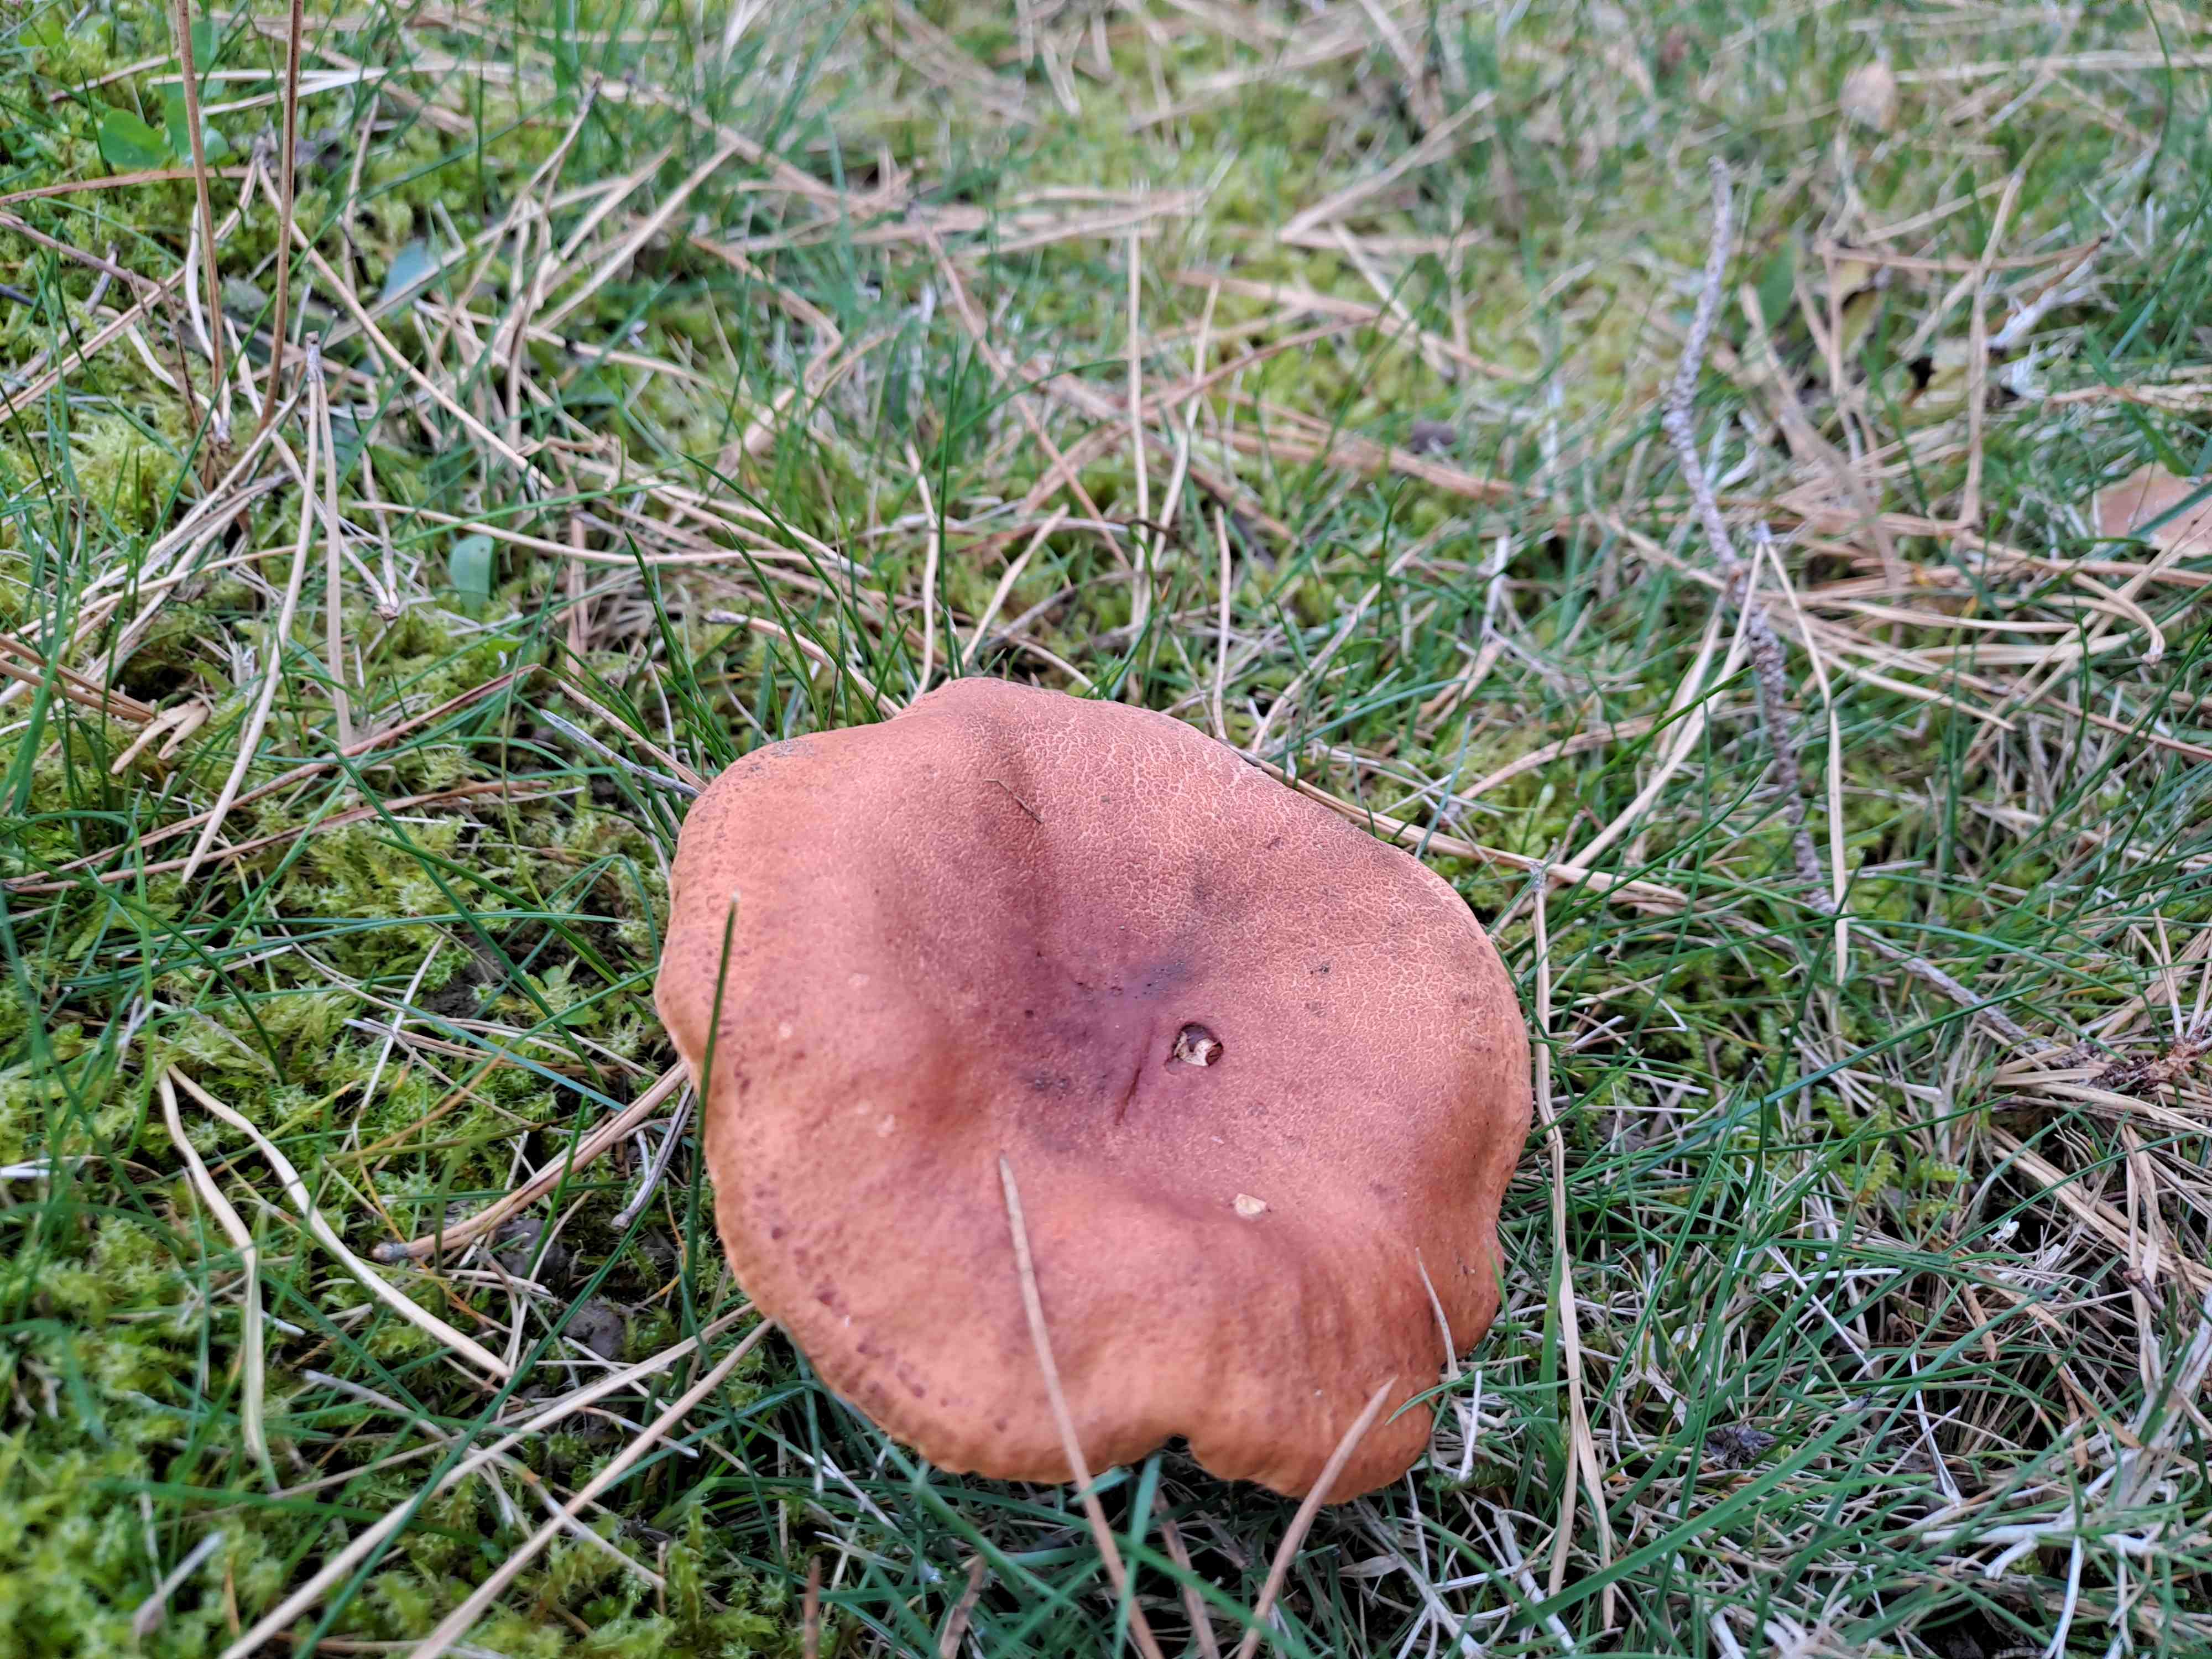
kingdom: Fungi
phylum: Basidiomycota
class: Agaricomycetes
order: Russulales
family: Russulaceae
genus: Lactarius
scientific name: Lactarius fulvissimus
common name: ræve-mælkehat
